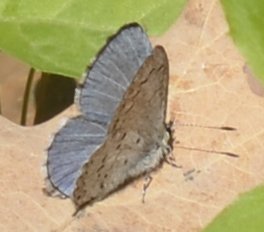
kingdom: Animalia
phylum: Arthropoda
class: Insecta
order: Lepidoptera
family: Lycaenidae
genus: Celastrina
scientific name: Celastrina
